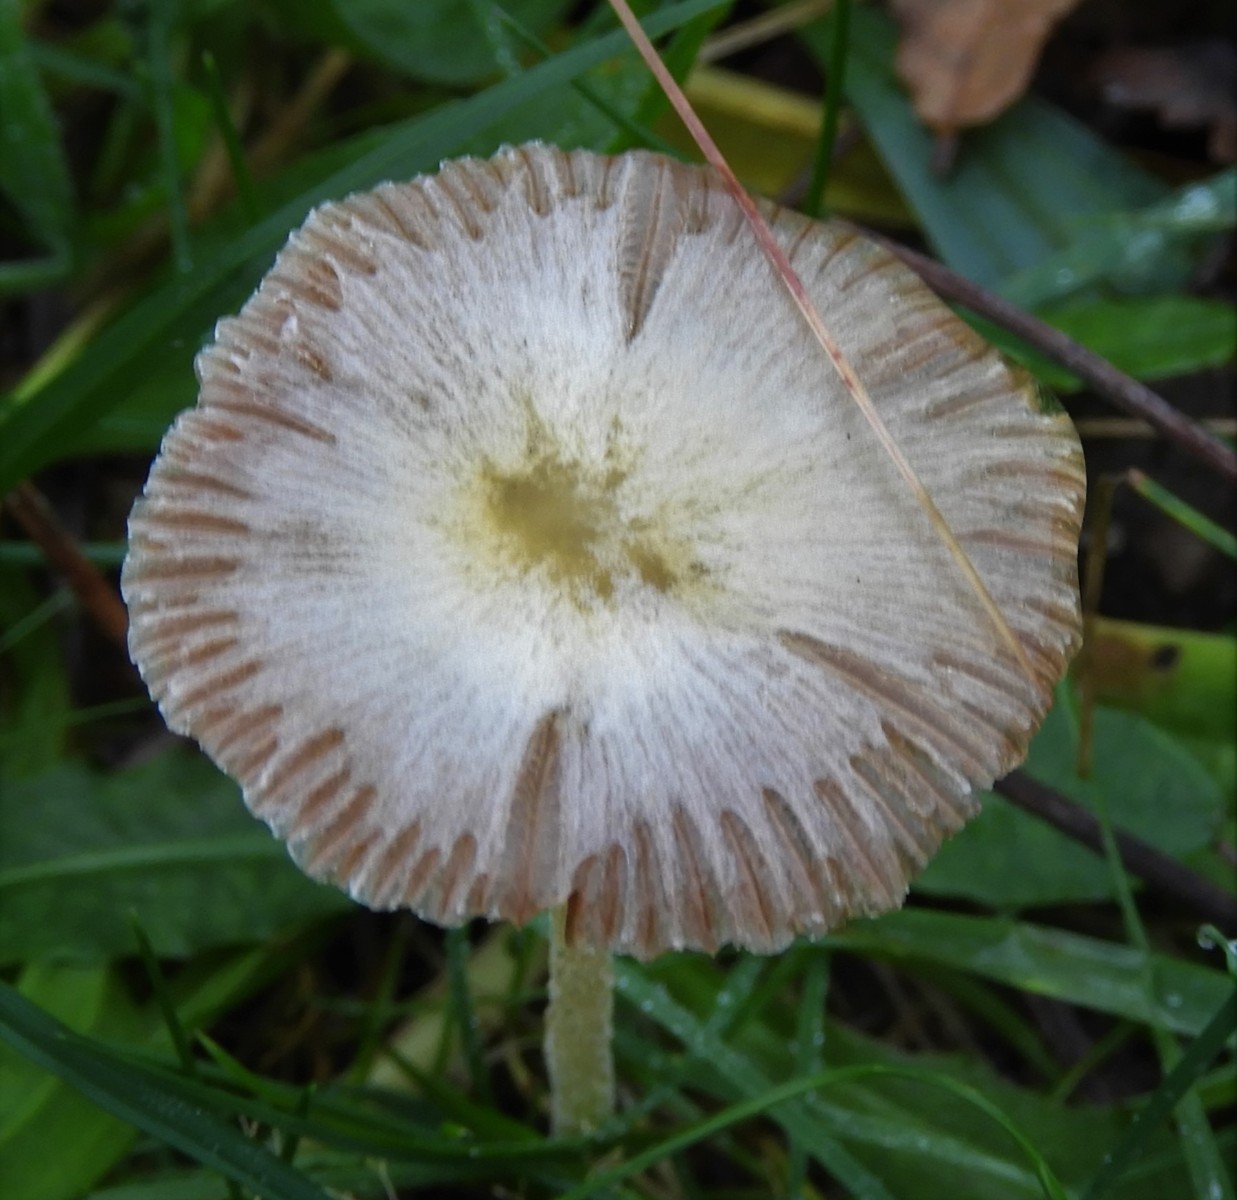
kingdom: Fungi
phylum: Basidiomycota
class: Agaricomycetes
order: Agaricales
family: Bolbitiaceae
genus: Bolbitius
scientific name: Bolbitius titubans
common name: almindelig gulhat
